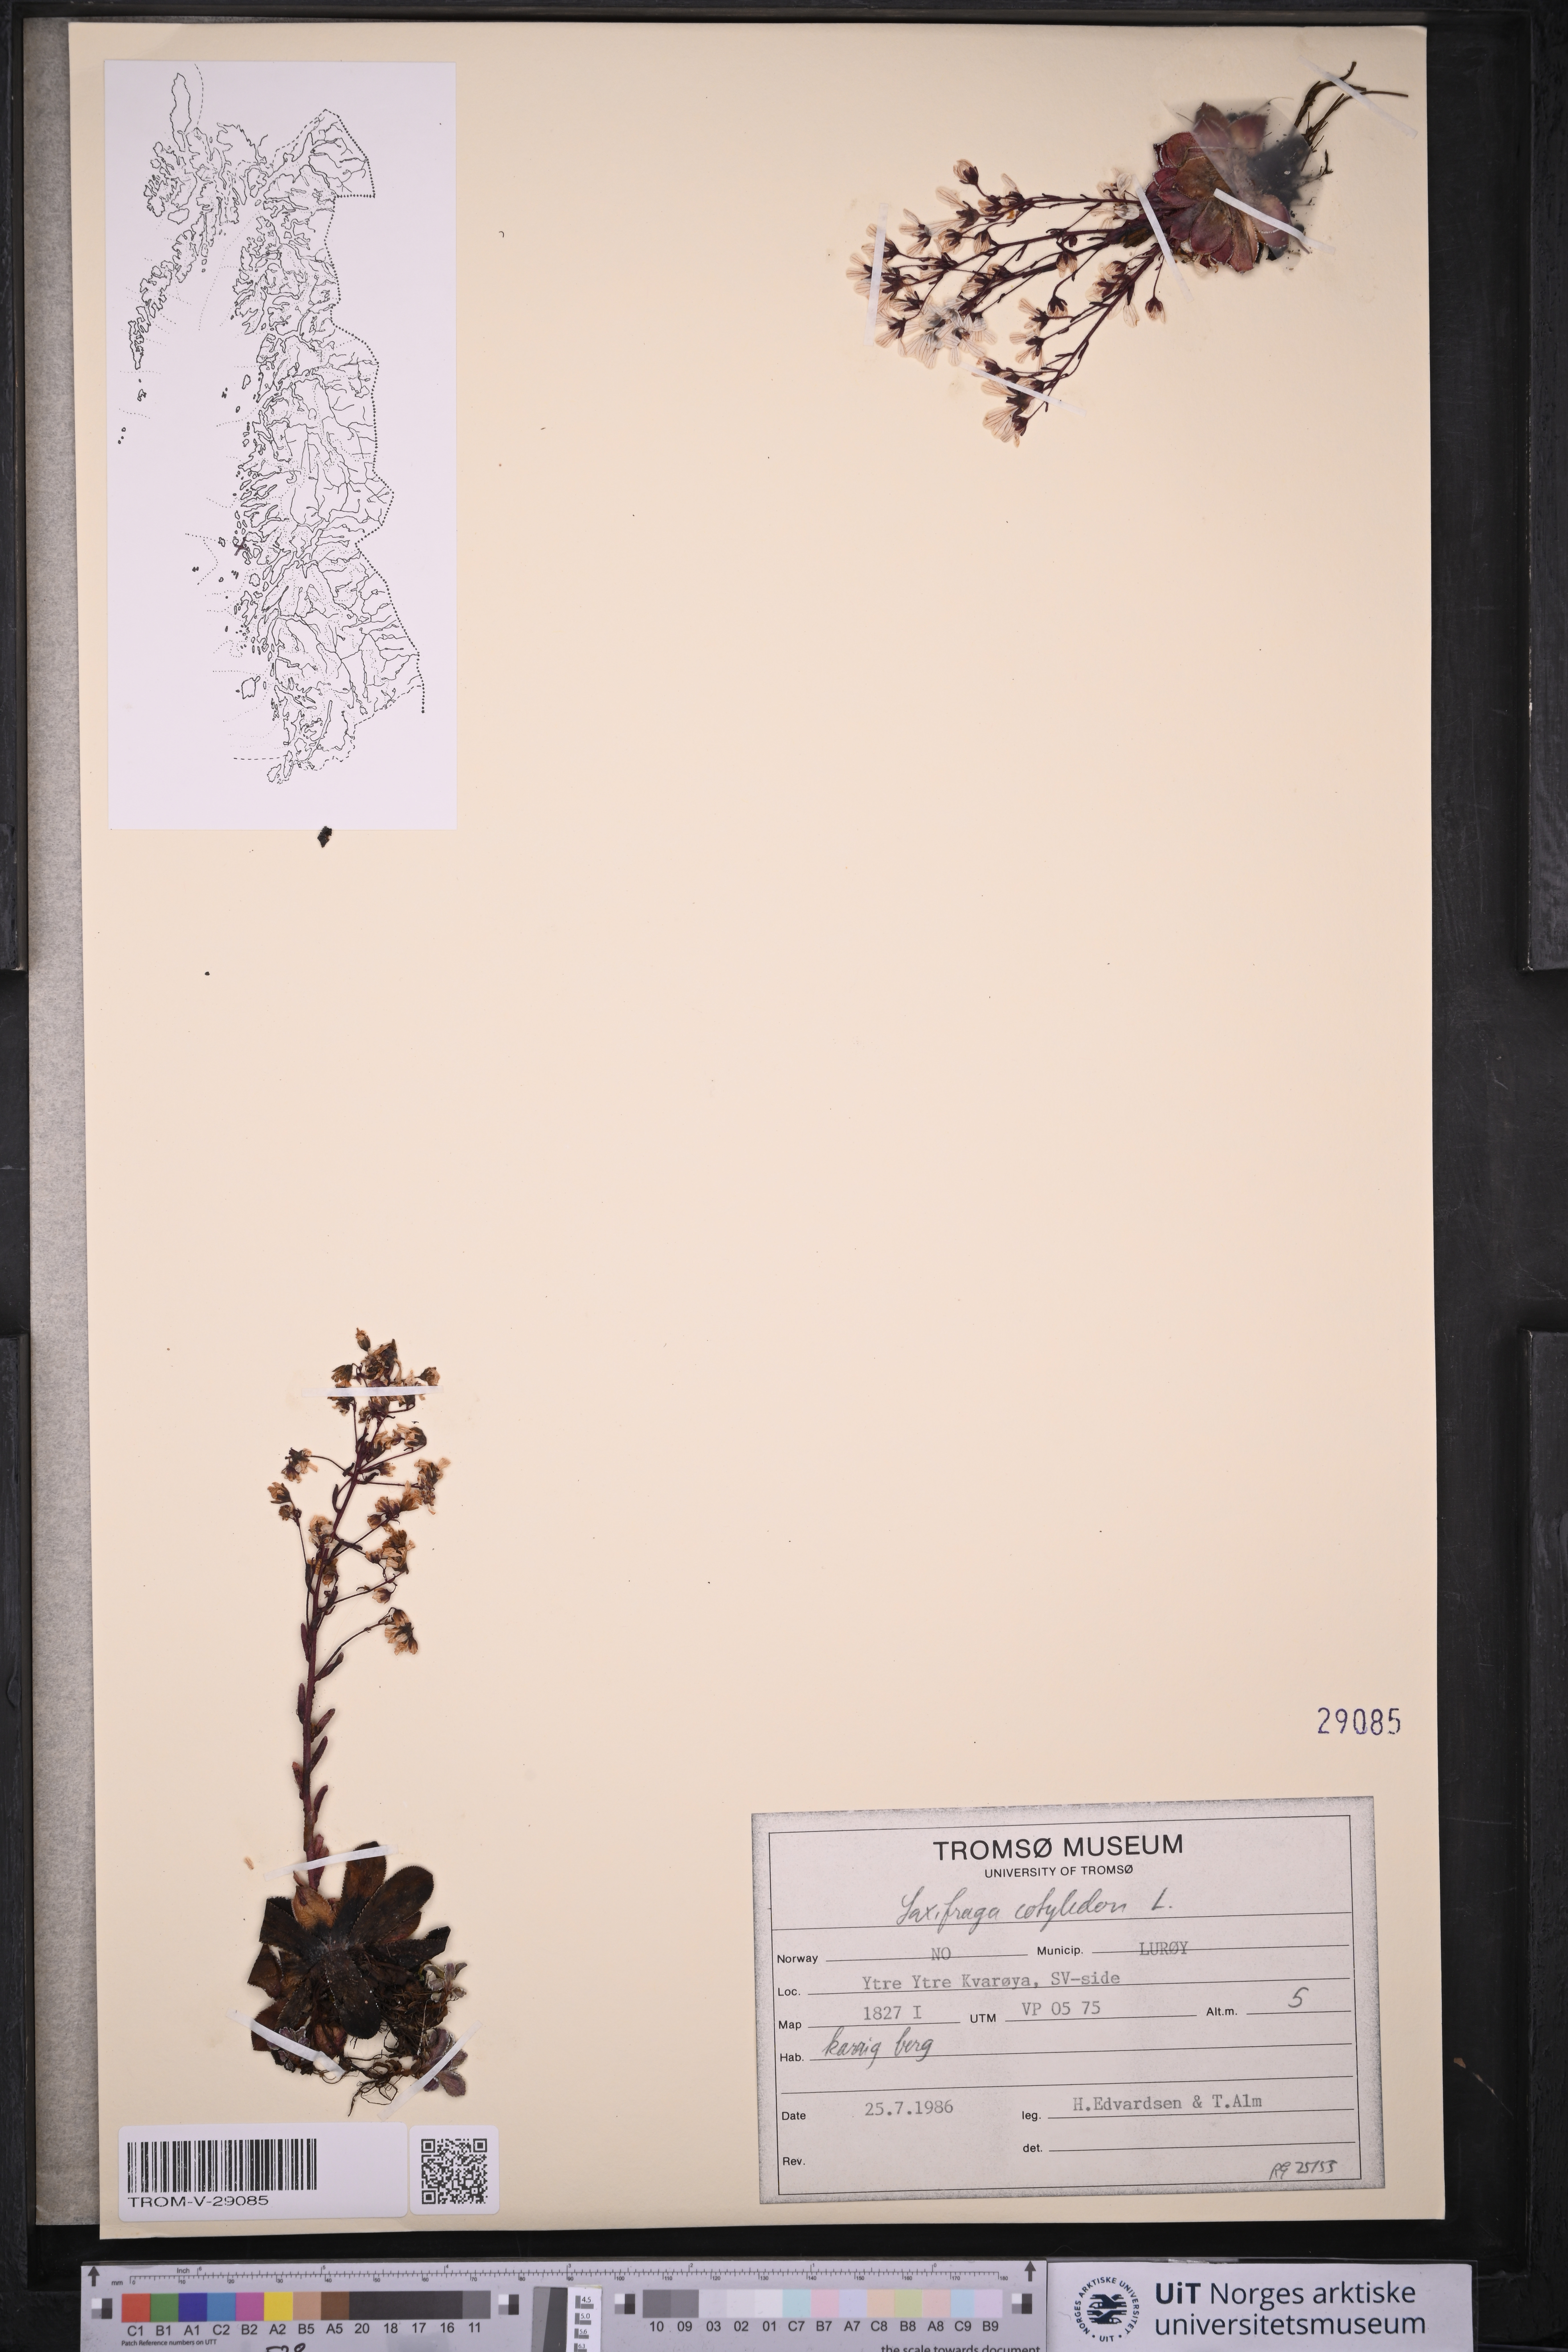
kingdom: Plantae
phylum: Tracheophyta
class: Magnoliopsida
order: Saxifragales
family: Saxifragaceae
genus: Saxifraga
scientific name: Saxifraga cotyledon
